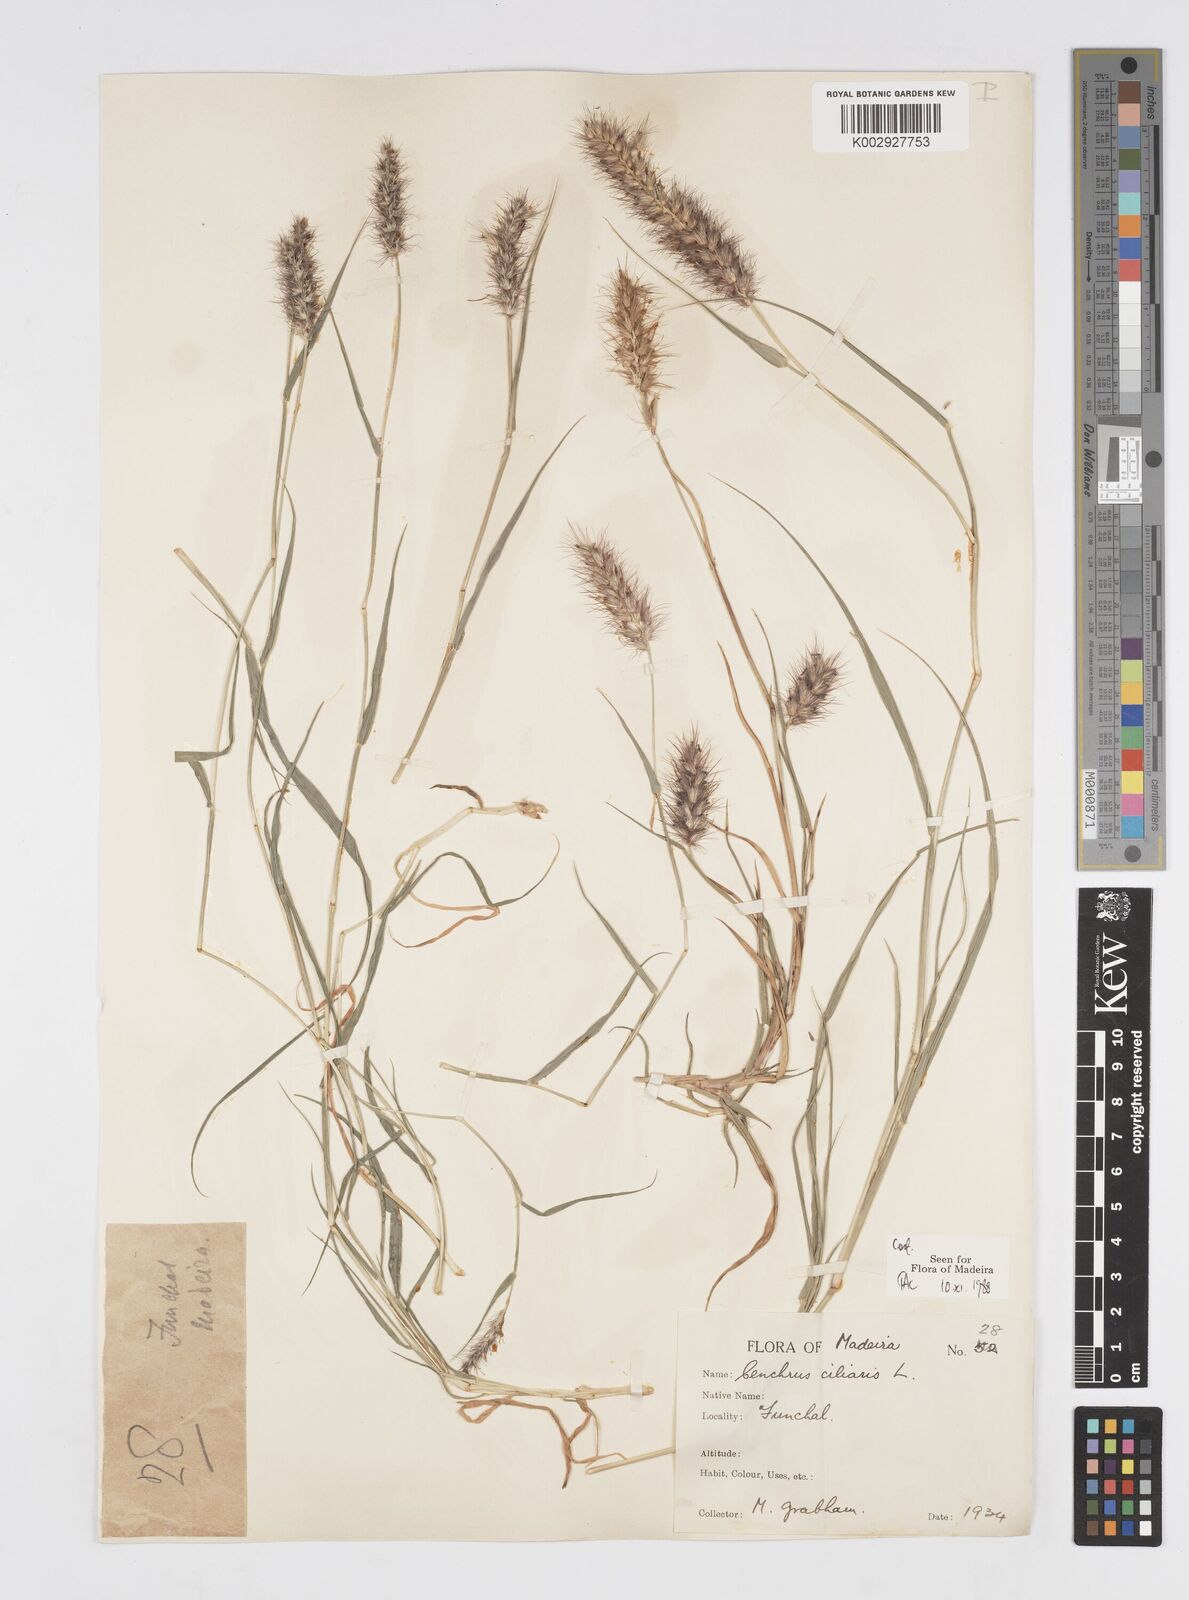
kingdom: Plantae
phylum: Tracheophyta
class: Liliopsida
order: Poales
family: Poaceae
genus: Cenchrus
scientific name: Cenchrus ciliaris
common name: Buffelgrass
